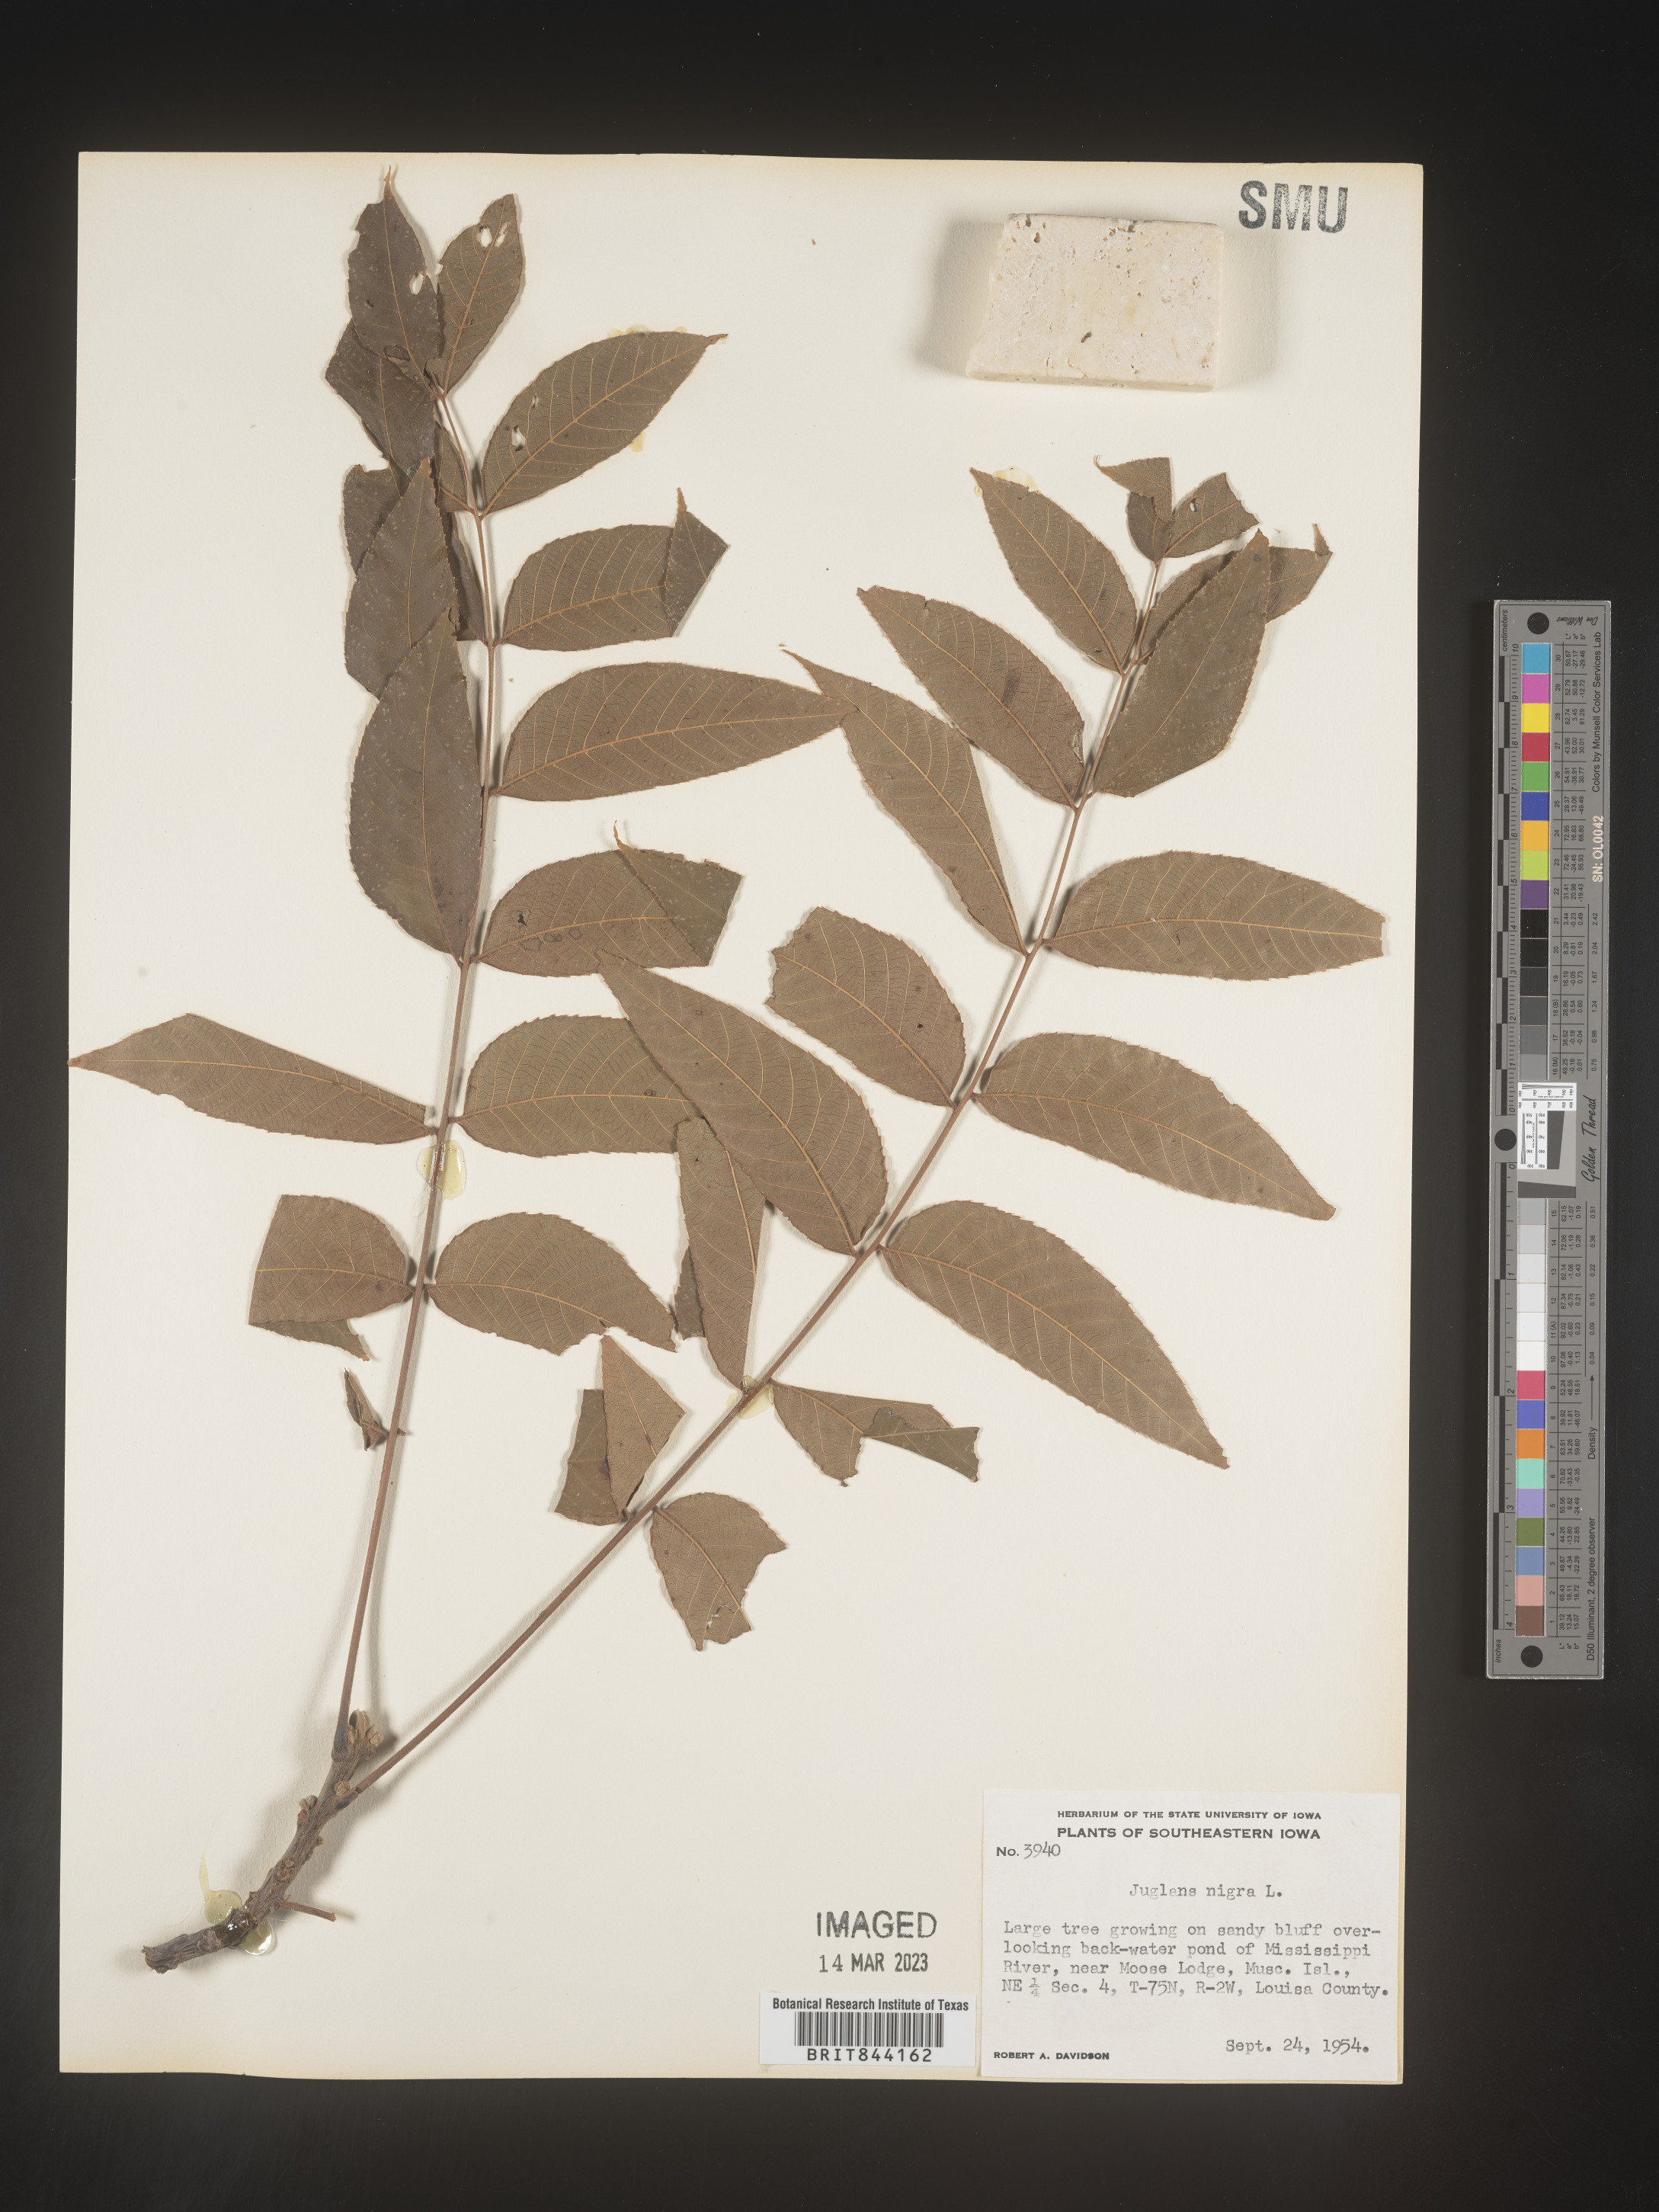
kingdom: Plantae
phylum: Tracheophyta
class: Magnoliopsida
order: Fagales
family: Juglandaceae
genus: Juglans
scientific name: Juglans nigra
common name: Black walnut
